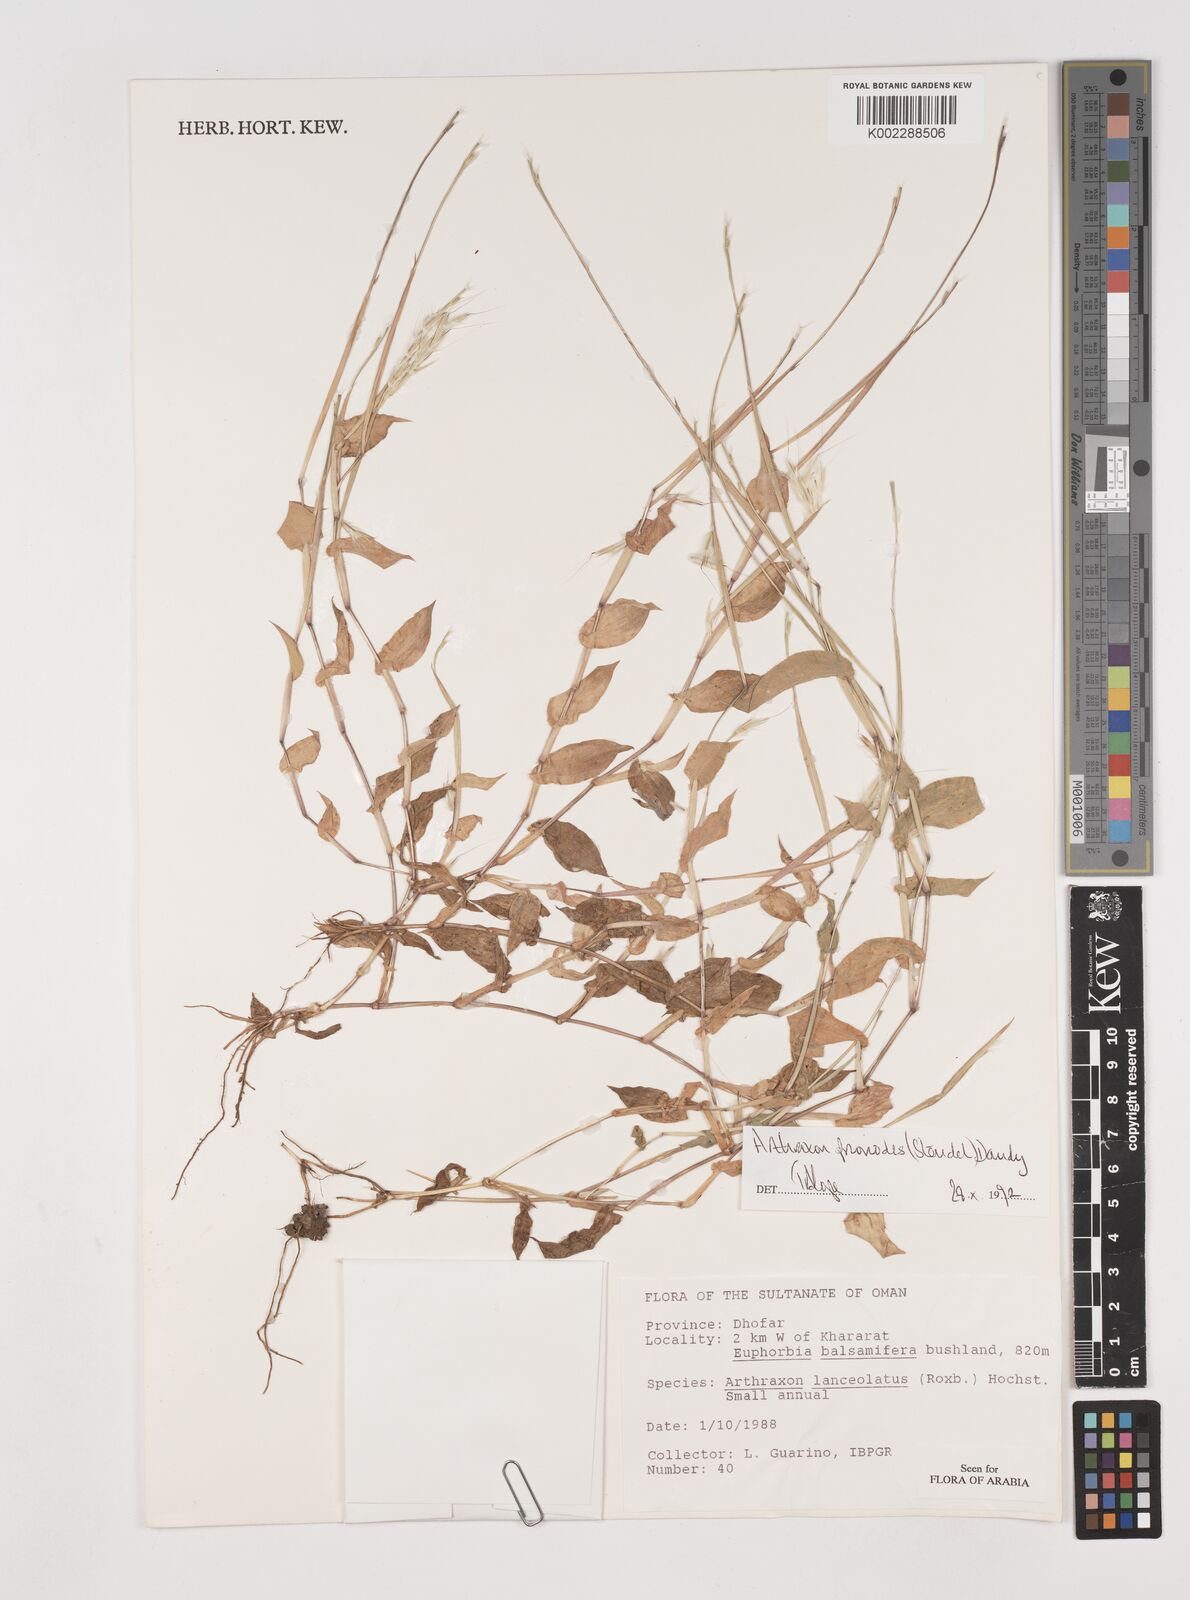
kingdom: Plantae
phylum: Tracheophyta
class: Liliopsida
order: Poales
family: Poaceae
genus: Arthraxon
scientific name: Arthraxon prionodes
